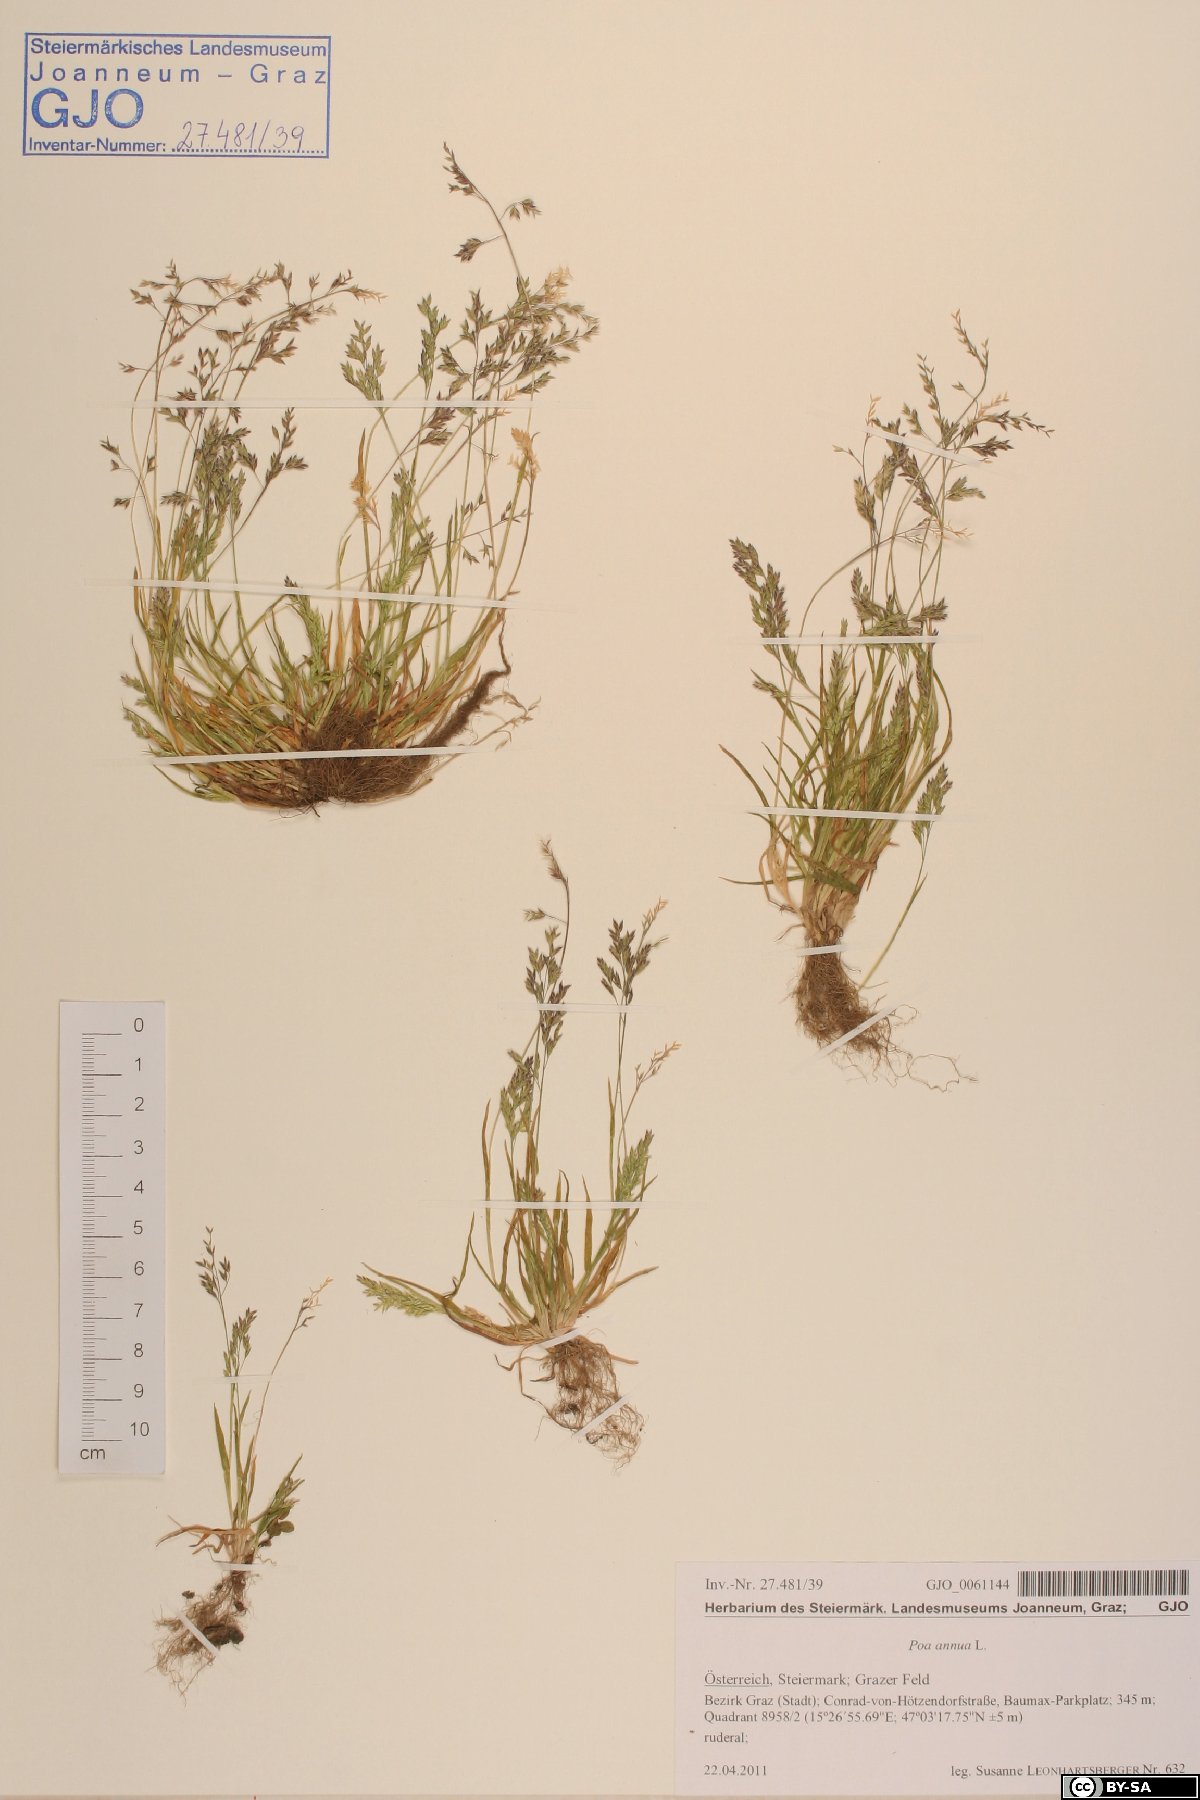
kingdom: Plantae
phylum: Tracheophyta
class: Liliopsida
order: Poales
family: Poaceae
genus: Poa
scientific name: Poa annua
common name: Annual bluegrass
